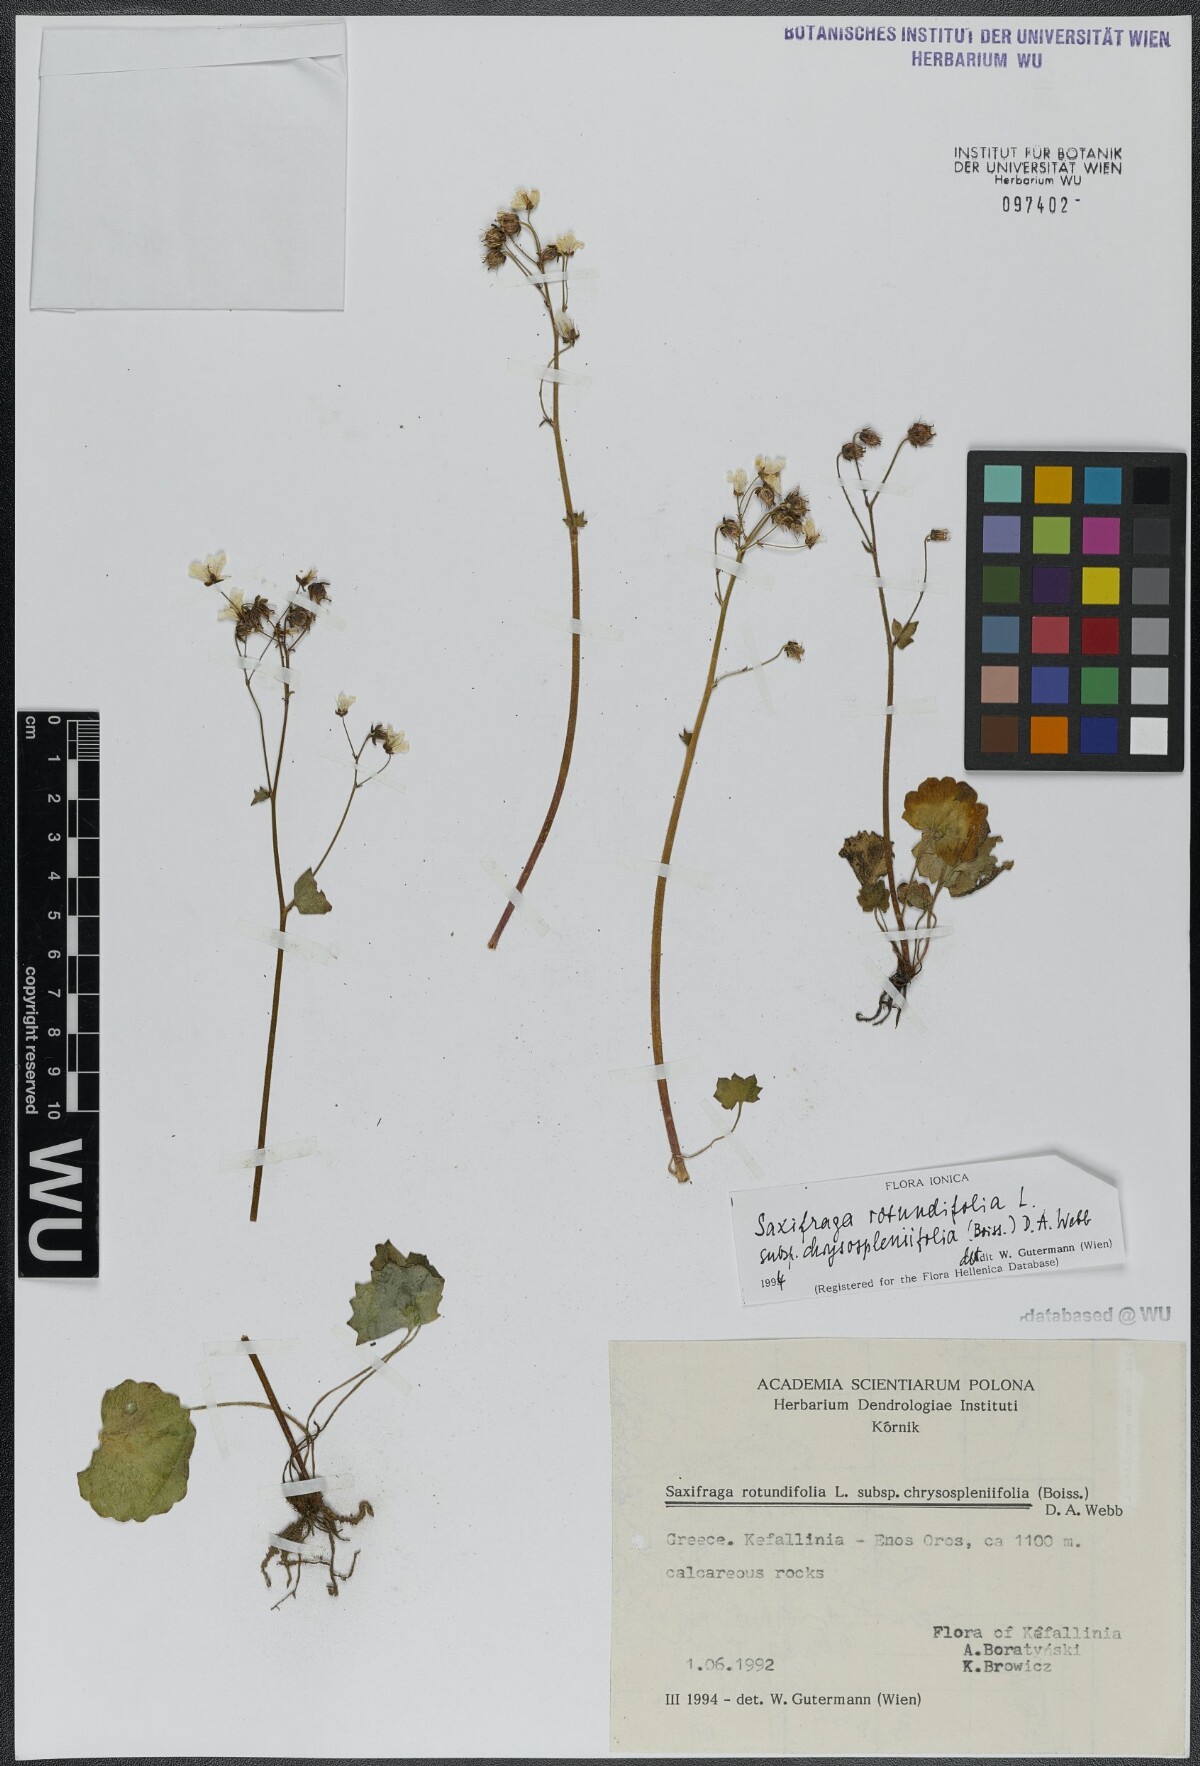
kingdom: Plantae
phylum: Tracheophyta
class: Magnoliopsida
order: Saxifragales
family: Saxifragaceae
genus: Saxifraga
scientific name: Saxifraga rotundifolia
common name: Round-leaved saxifrage
